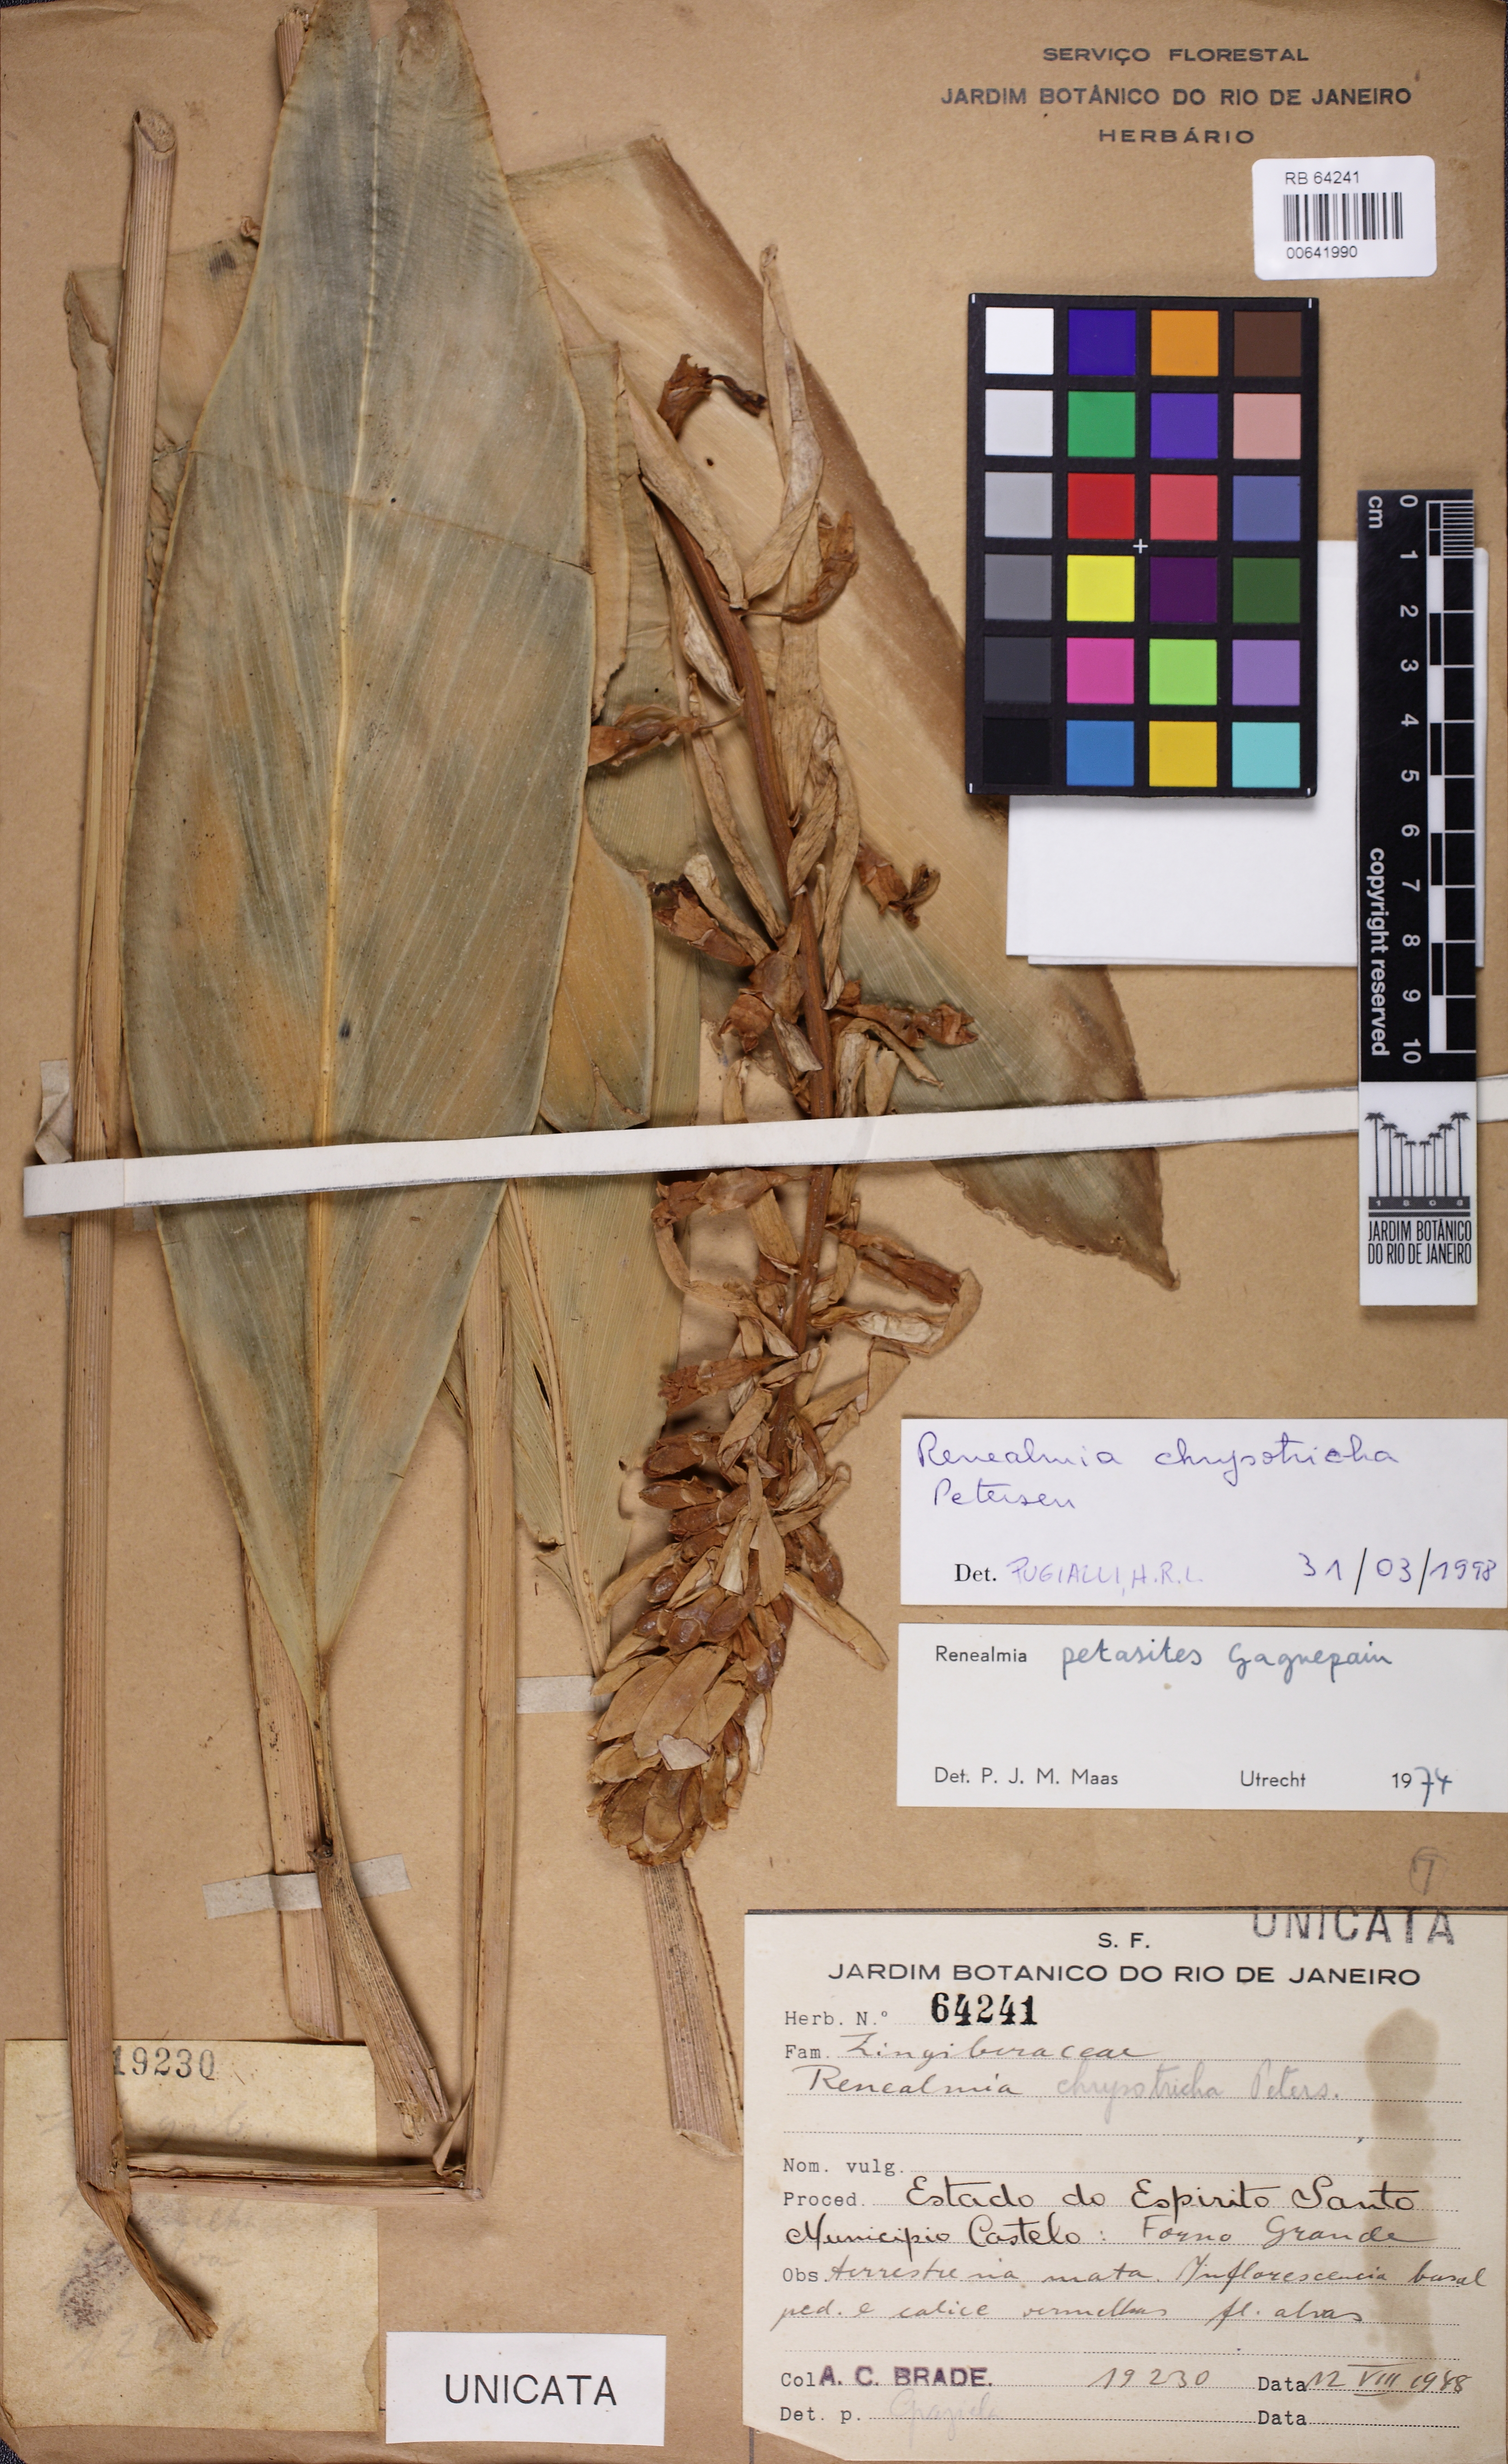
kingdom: Plantae
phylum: Tracheophyta
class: Liliopsida
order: Zingiberales
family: Zingiberaceae
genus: Renealmia
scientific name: Renealmia chrysotricha
